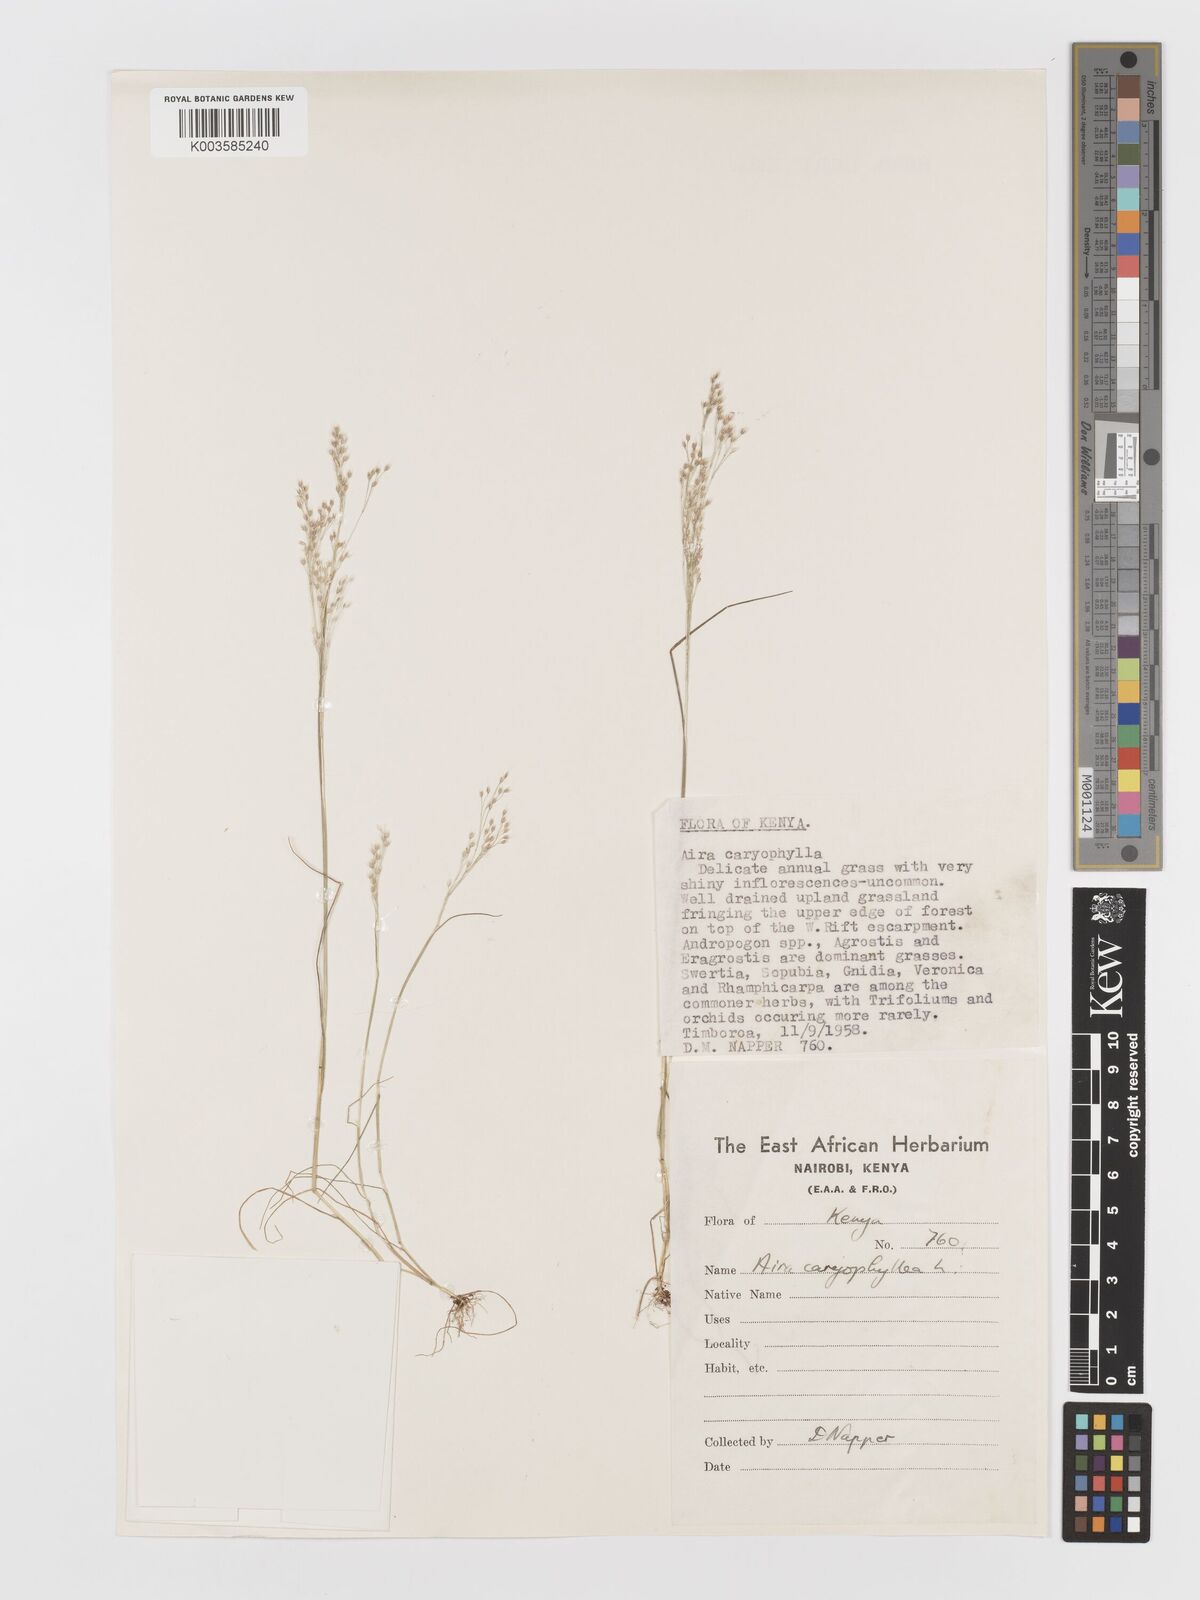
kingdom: Plantae
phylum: Tracheophyta
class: Liliopsida
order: Poales
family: Poaceae
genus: Aira
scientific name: Aira caryophyllea
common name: Silver hairgrass
